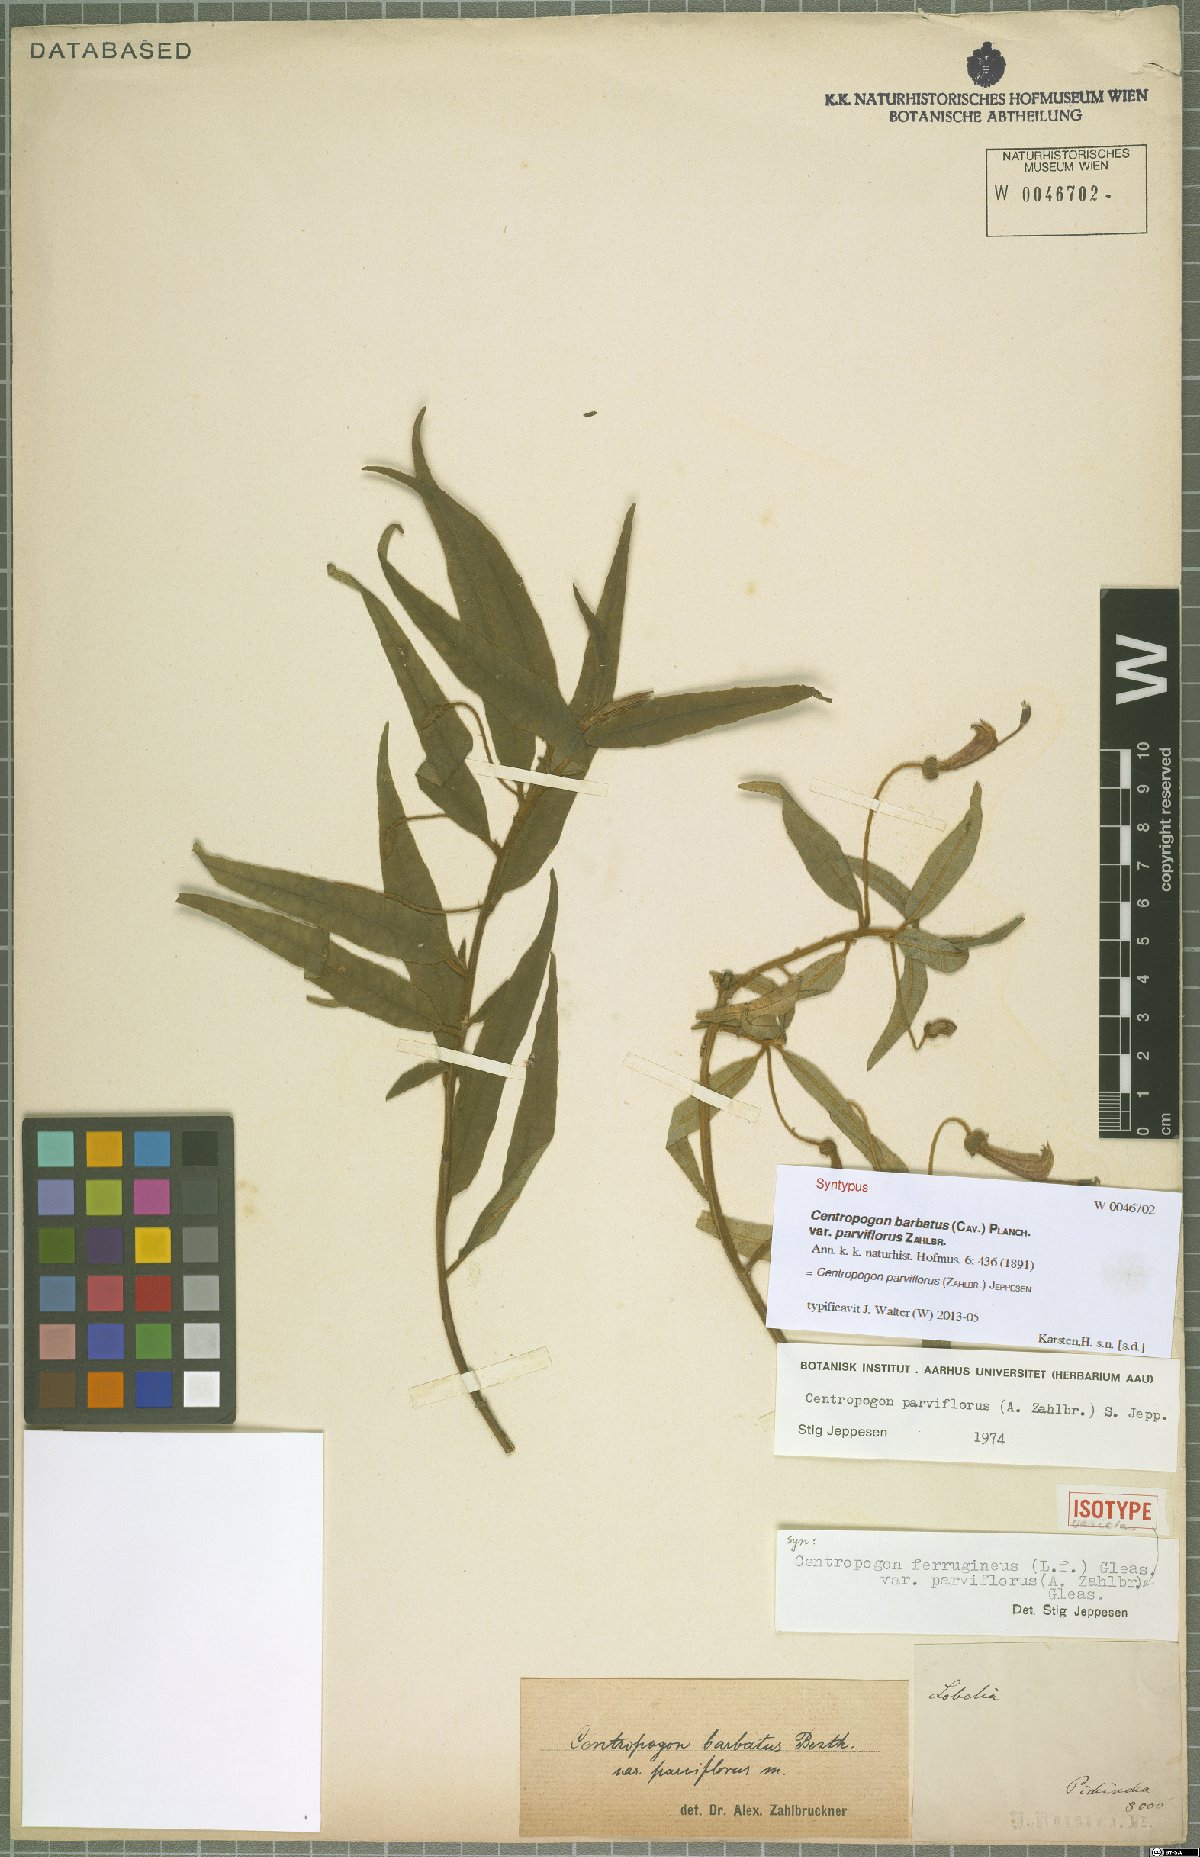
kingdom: Plantae
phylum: Tracheophyta
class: Magnoliopsida
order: Asterales
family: Campanulaceae
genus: Centropogon
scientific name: Centropogon parviflorus
